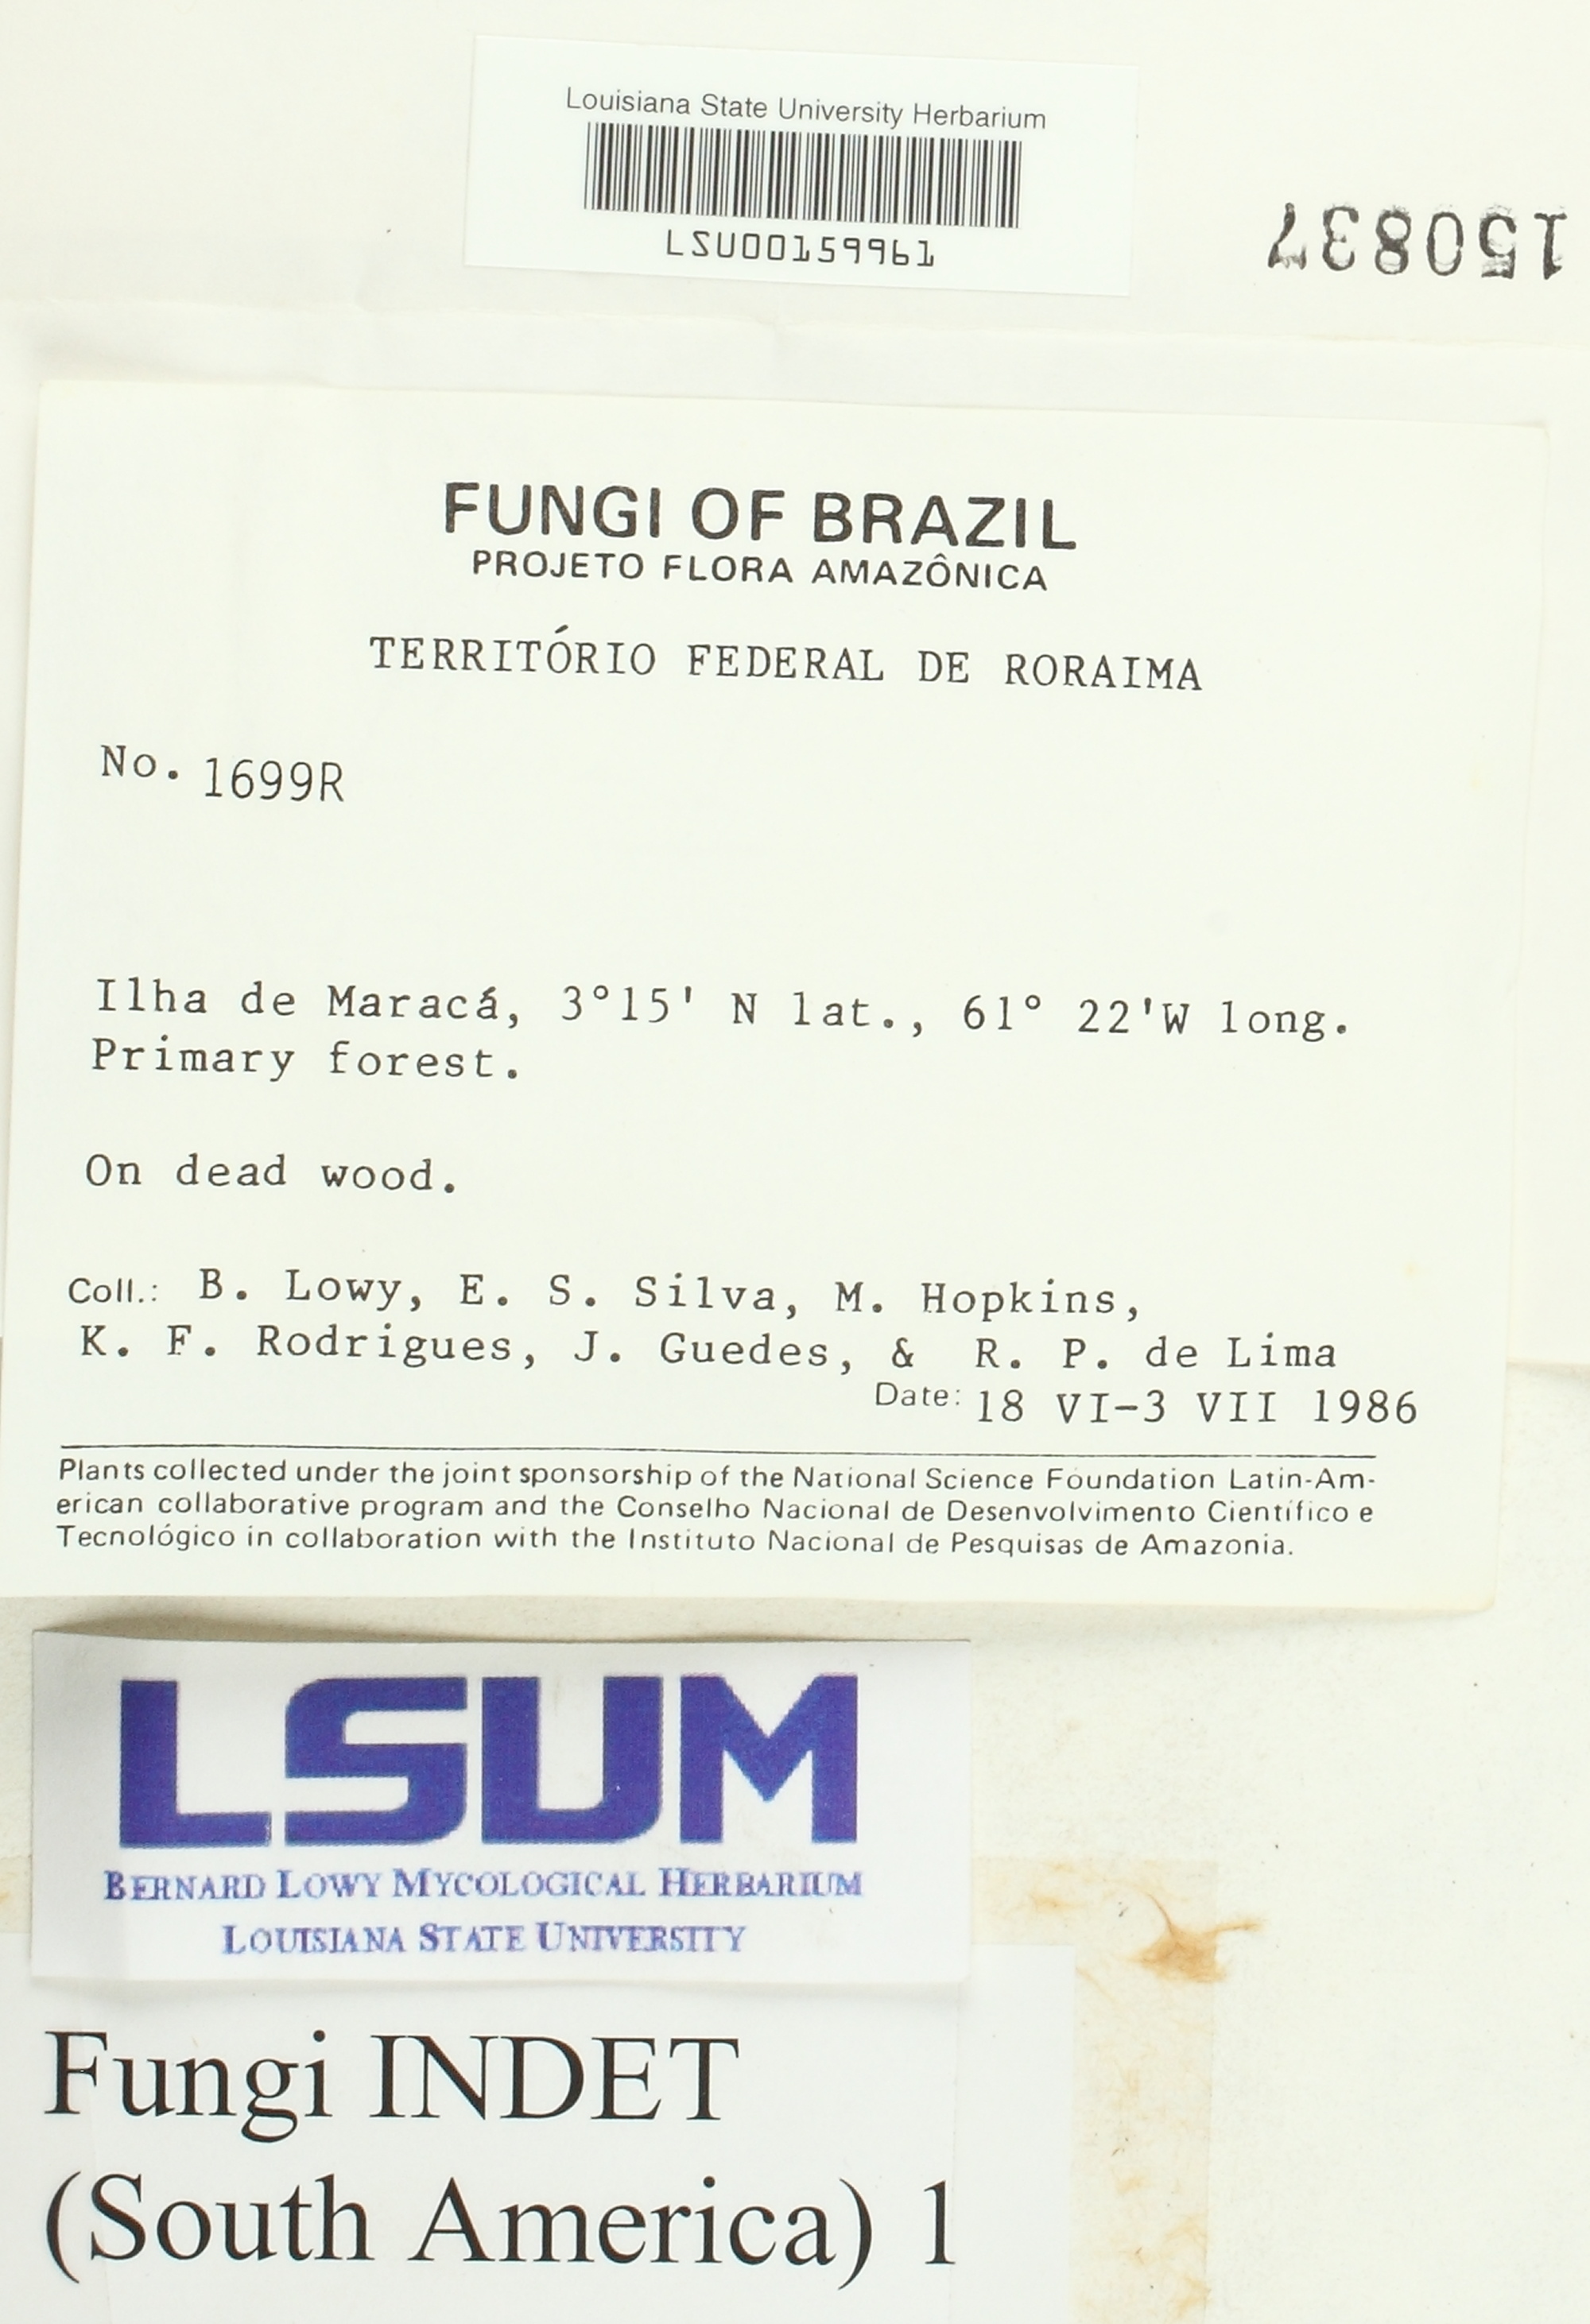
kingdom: Fungi
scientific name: Fungi
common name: Fungi
